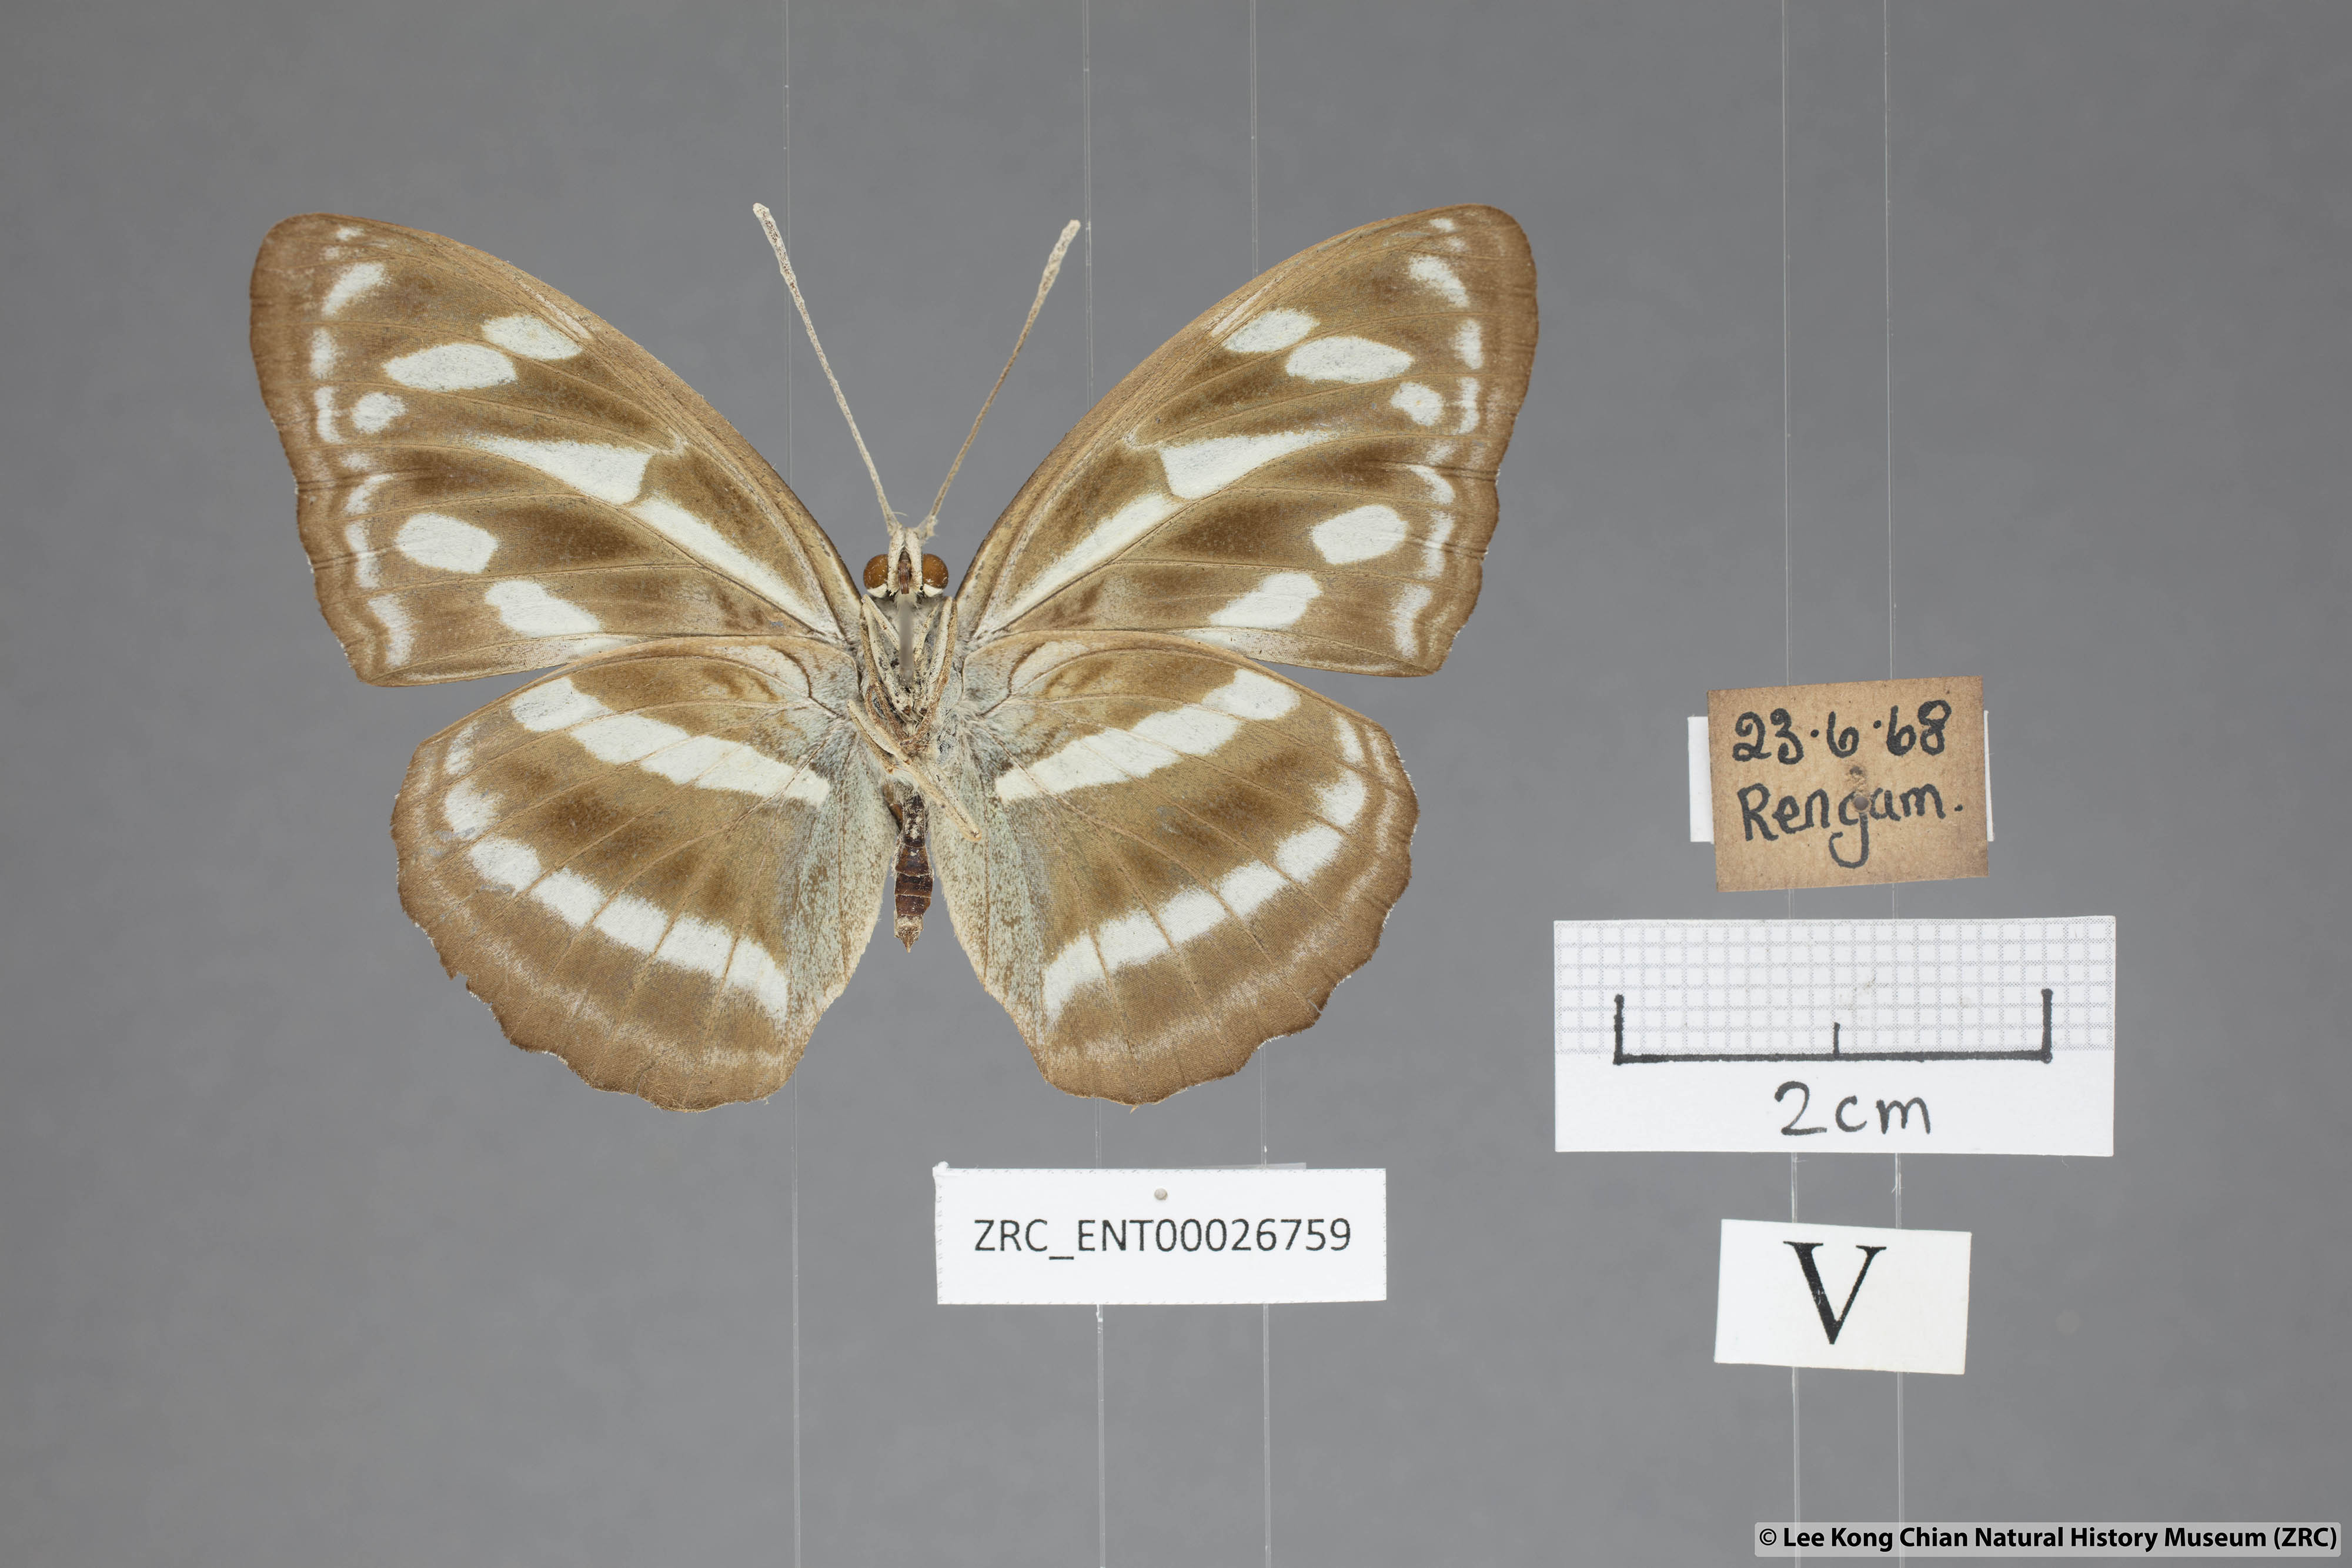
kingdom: Animalia
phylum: Arthropoda
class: Insecta
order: Lepidoptera
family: Nymphalidae
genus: Parathyma
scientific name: Parathyma kanwa
